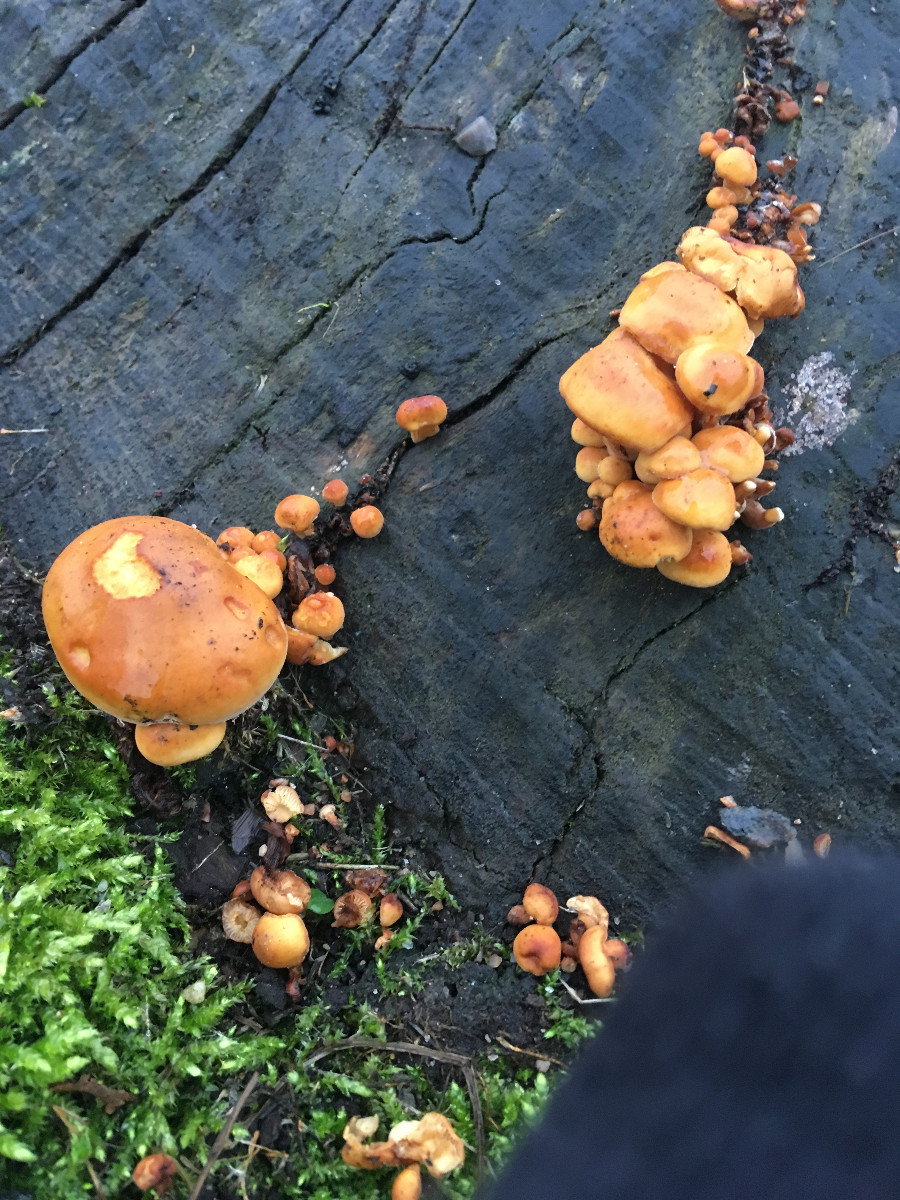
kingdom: Fungi
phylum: Basidiomycota
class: Agaricomycetes
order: Agaricales
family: Physalacriaceae
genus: Flammulina
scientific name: Flammulina
